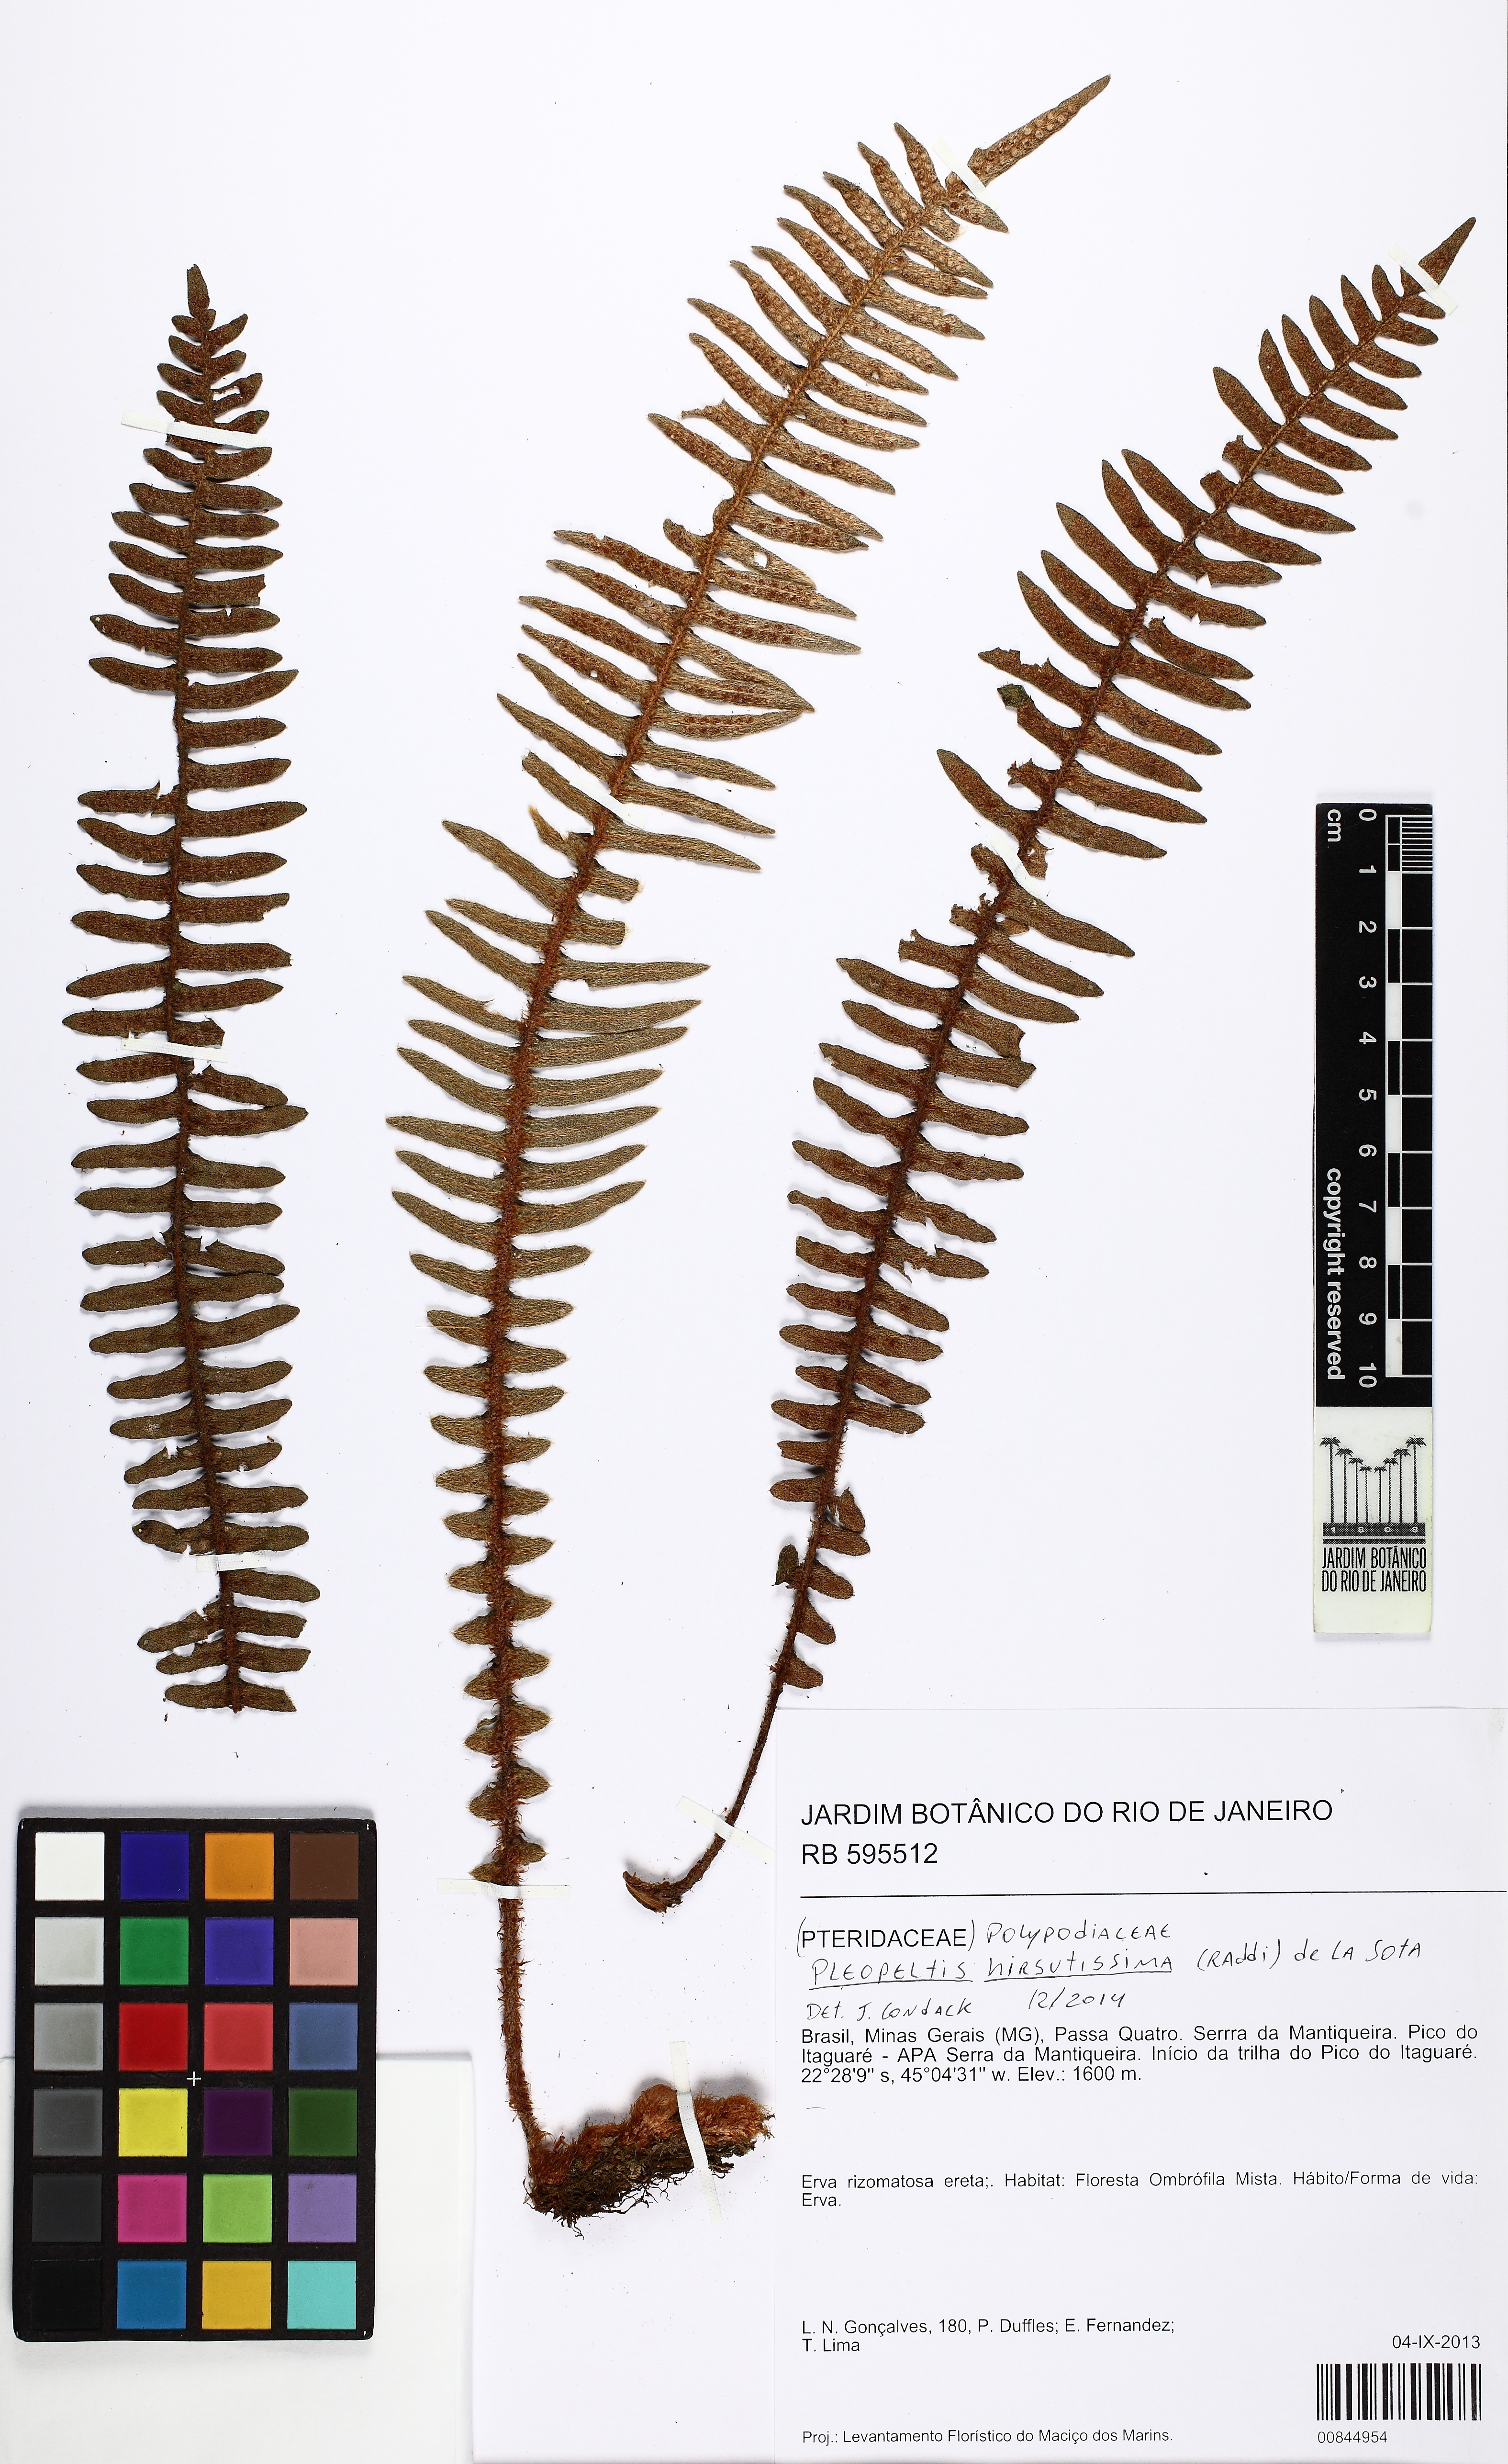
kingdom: Plantae
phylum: Tracheophyta
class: Polypodiopsida
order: Polypodiales
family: Polypodiaceae
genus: Pleopeltis
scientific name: Pleopeltis hirsutissima
